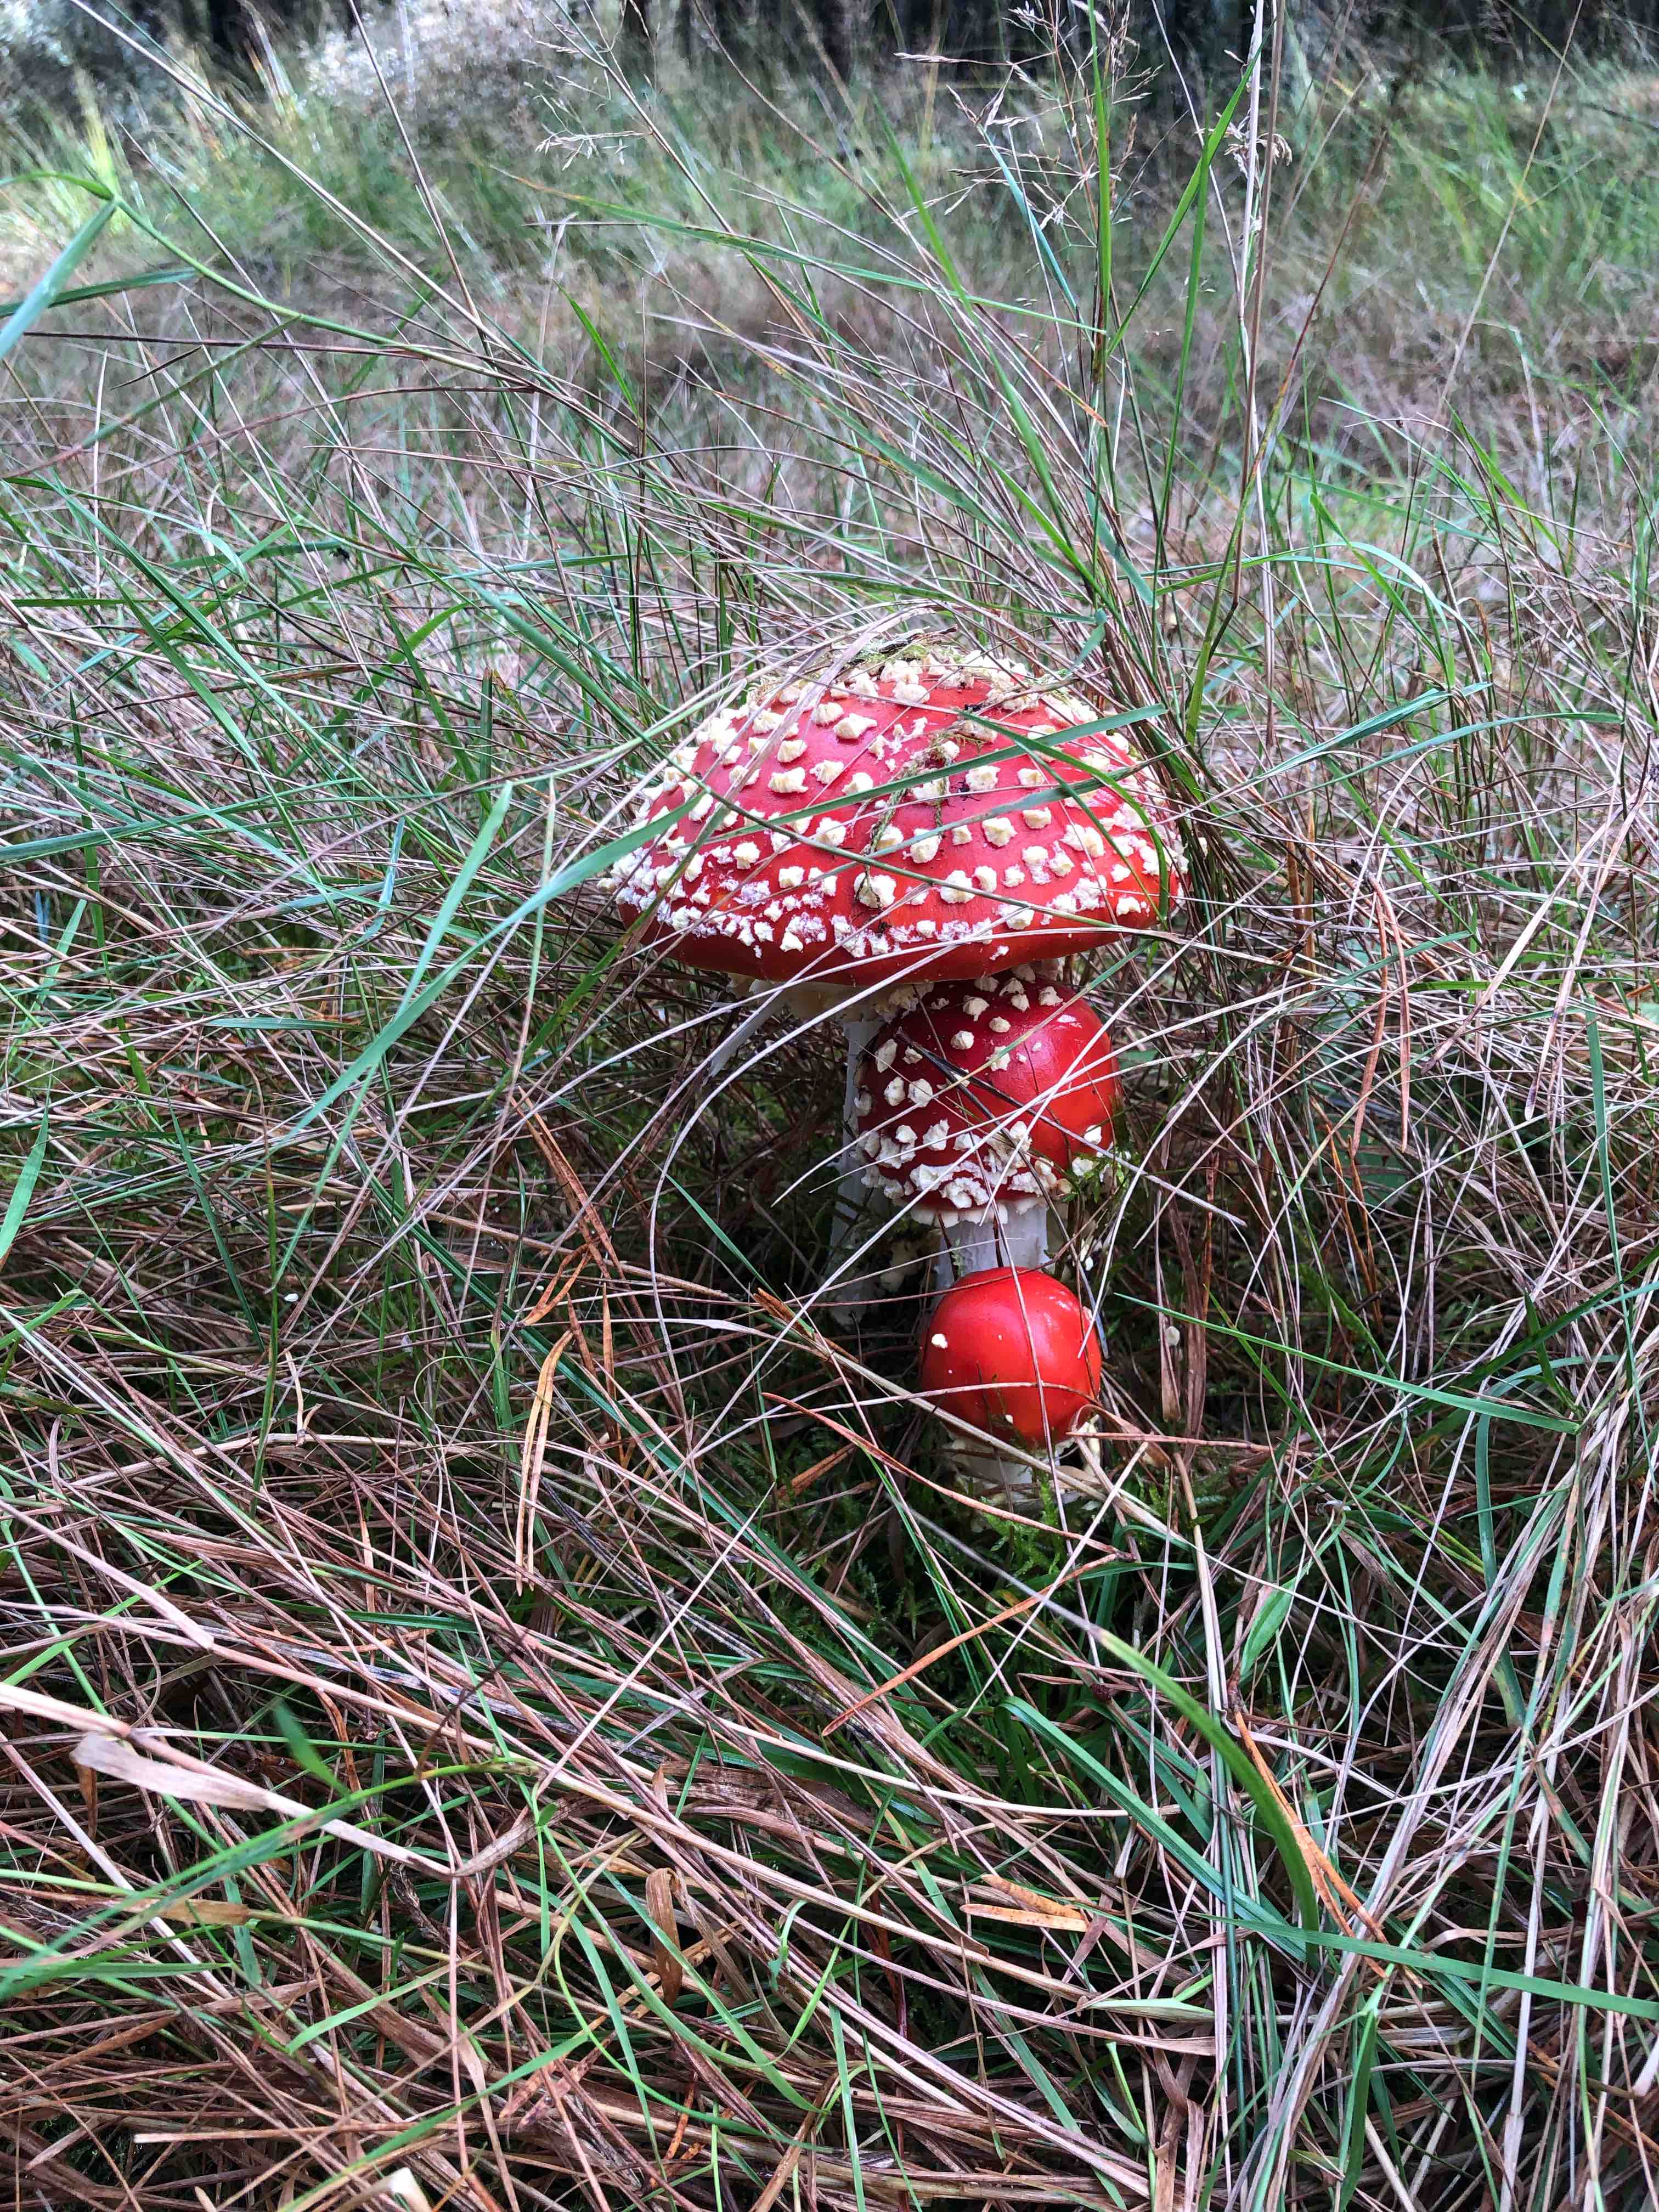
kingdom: Fungi
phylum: Basidiomycota
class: Agaricomycetes
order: Agaricales
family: Amanitaceae
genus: Amanita
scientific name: Amanita muscaria
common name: rød fluesvamp
